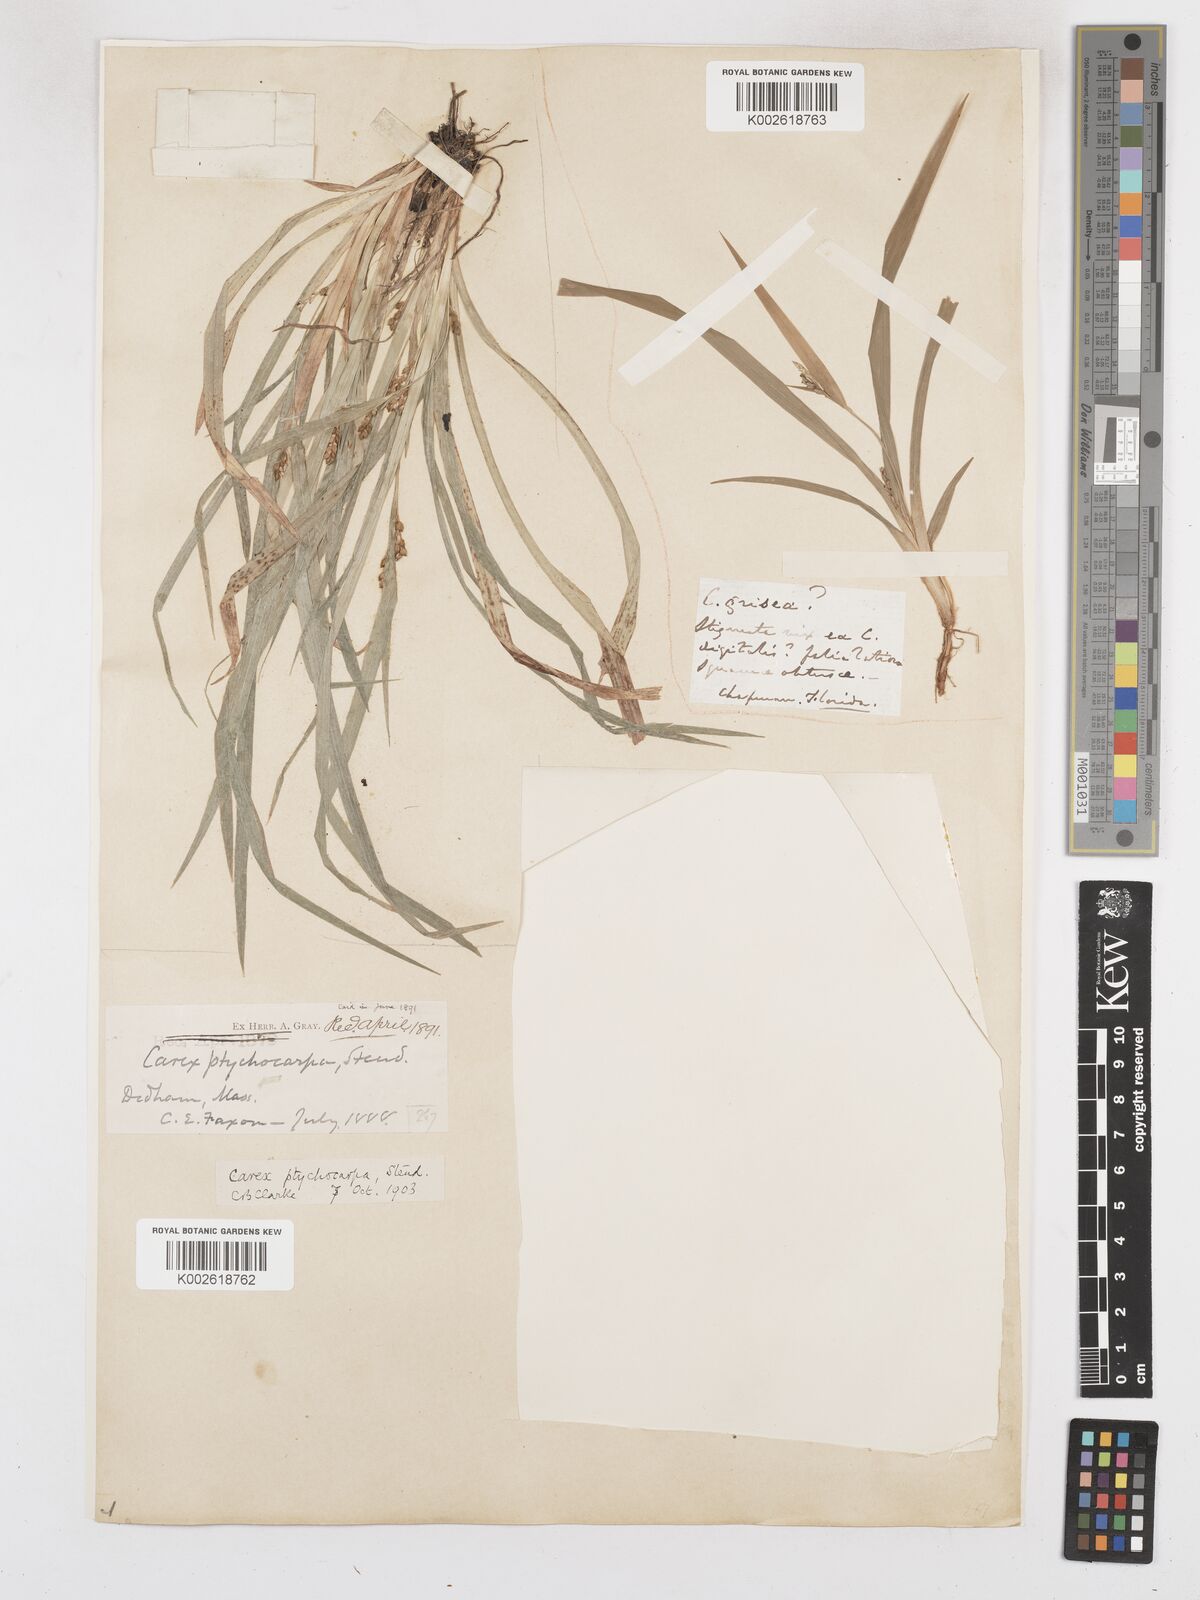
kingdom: Plantae
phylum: Tracheophyta
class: Liliopsida
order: Poales
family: Cyperaceae
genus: Carex
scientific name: Carex abscondita
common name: Thicket sedge
